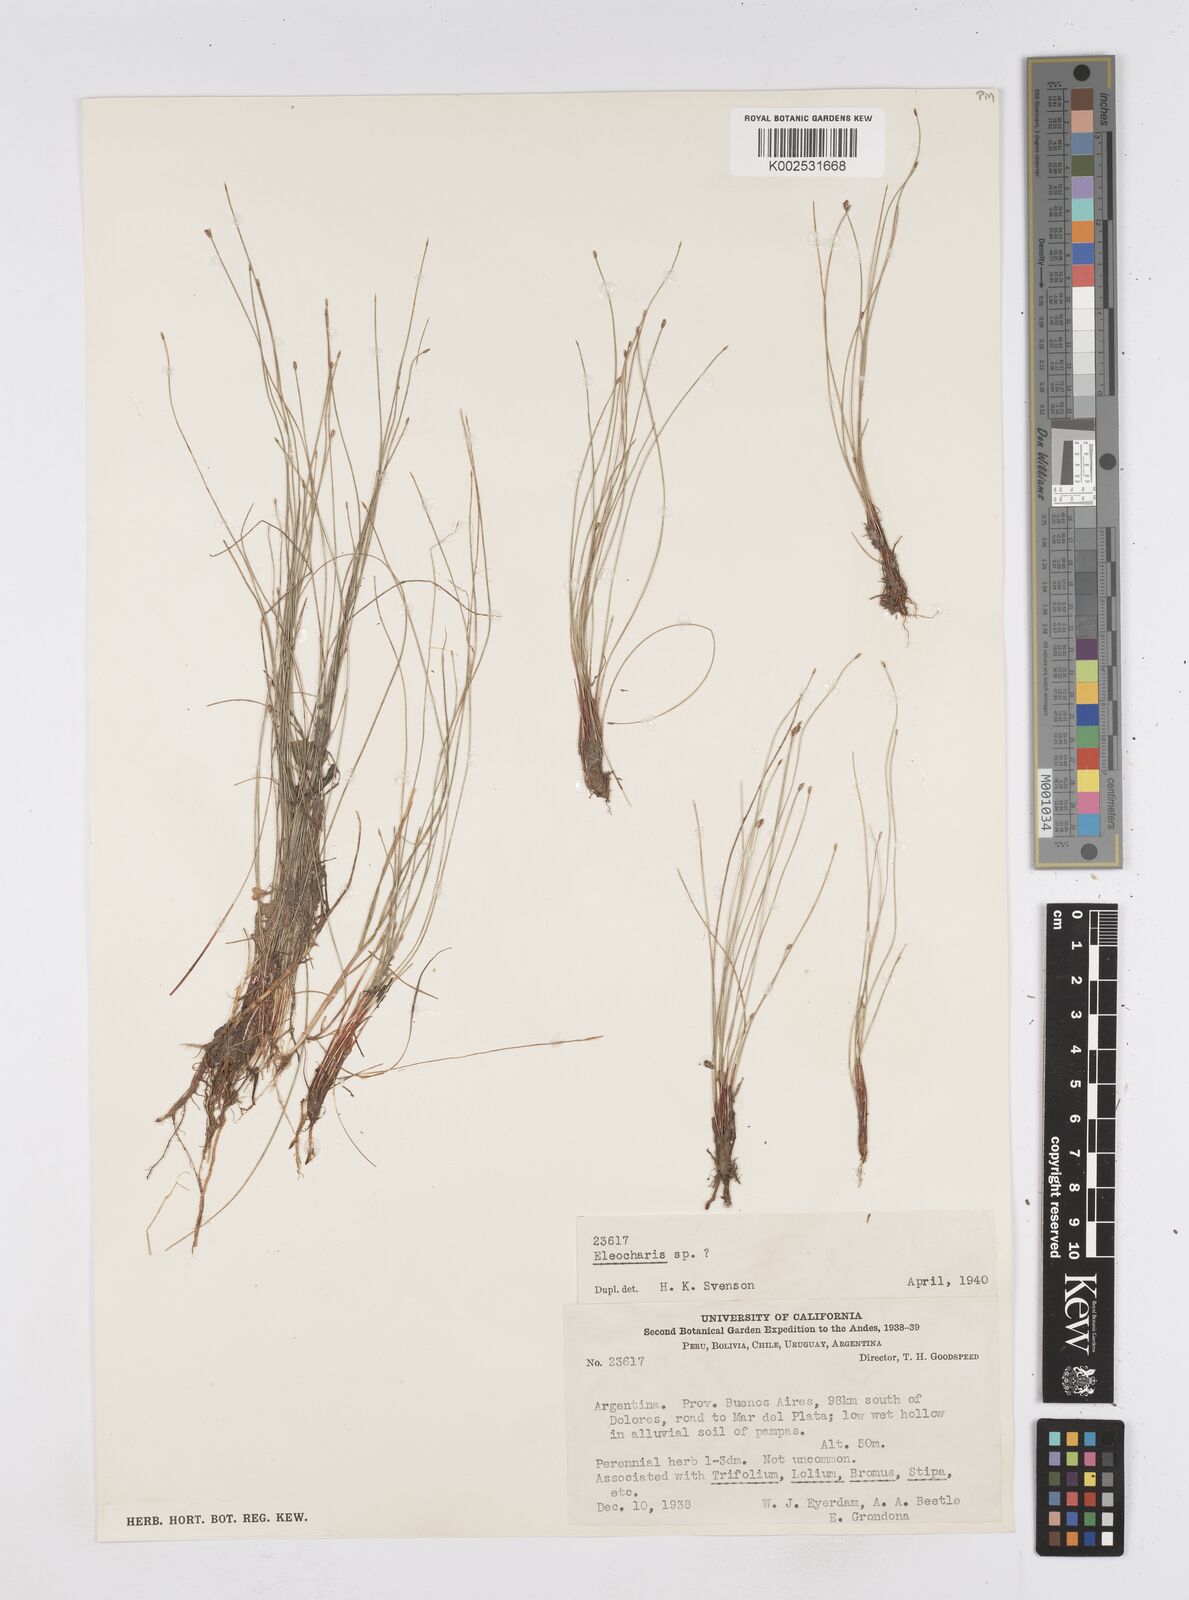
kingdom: Plantae
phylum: Tracheophyta
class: Liliopsida
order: Poales
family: Cyperaceae
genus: Eleocharis
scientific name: Eleocharis
